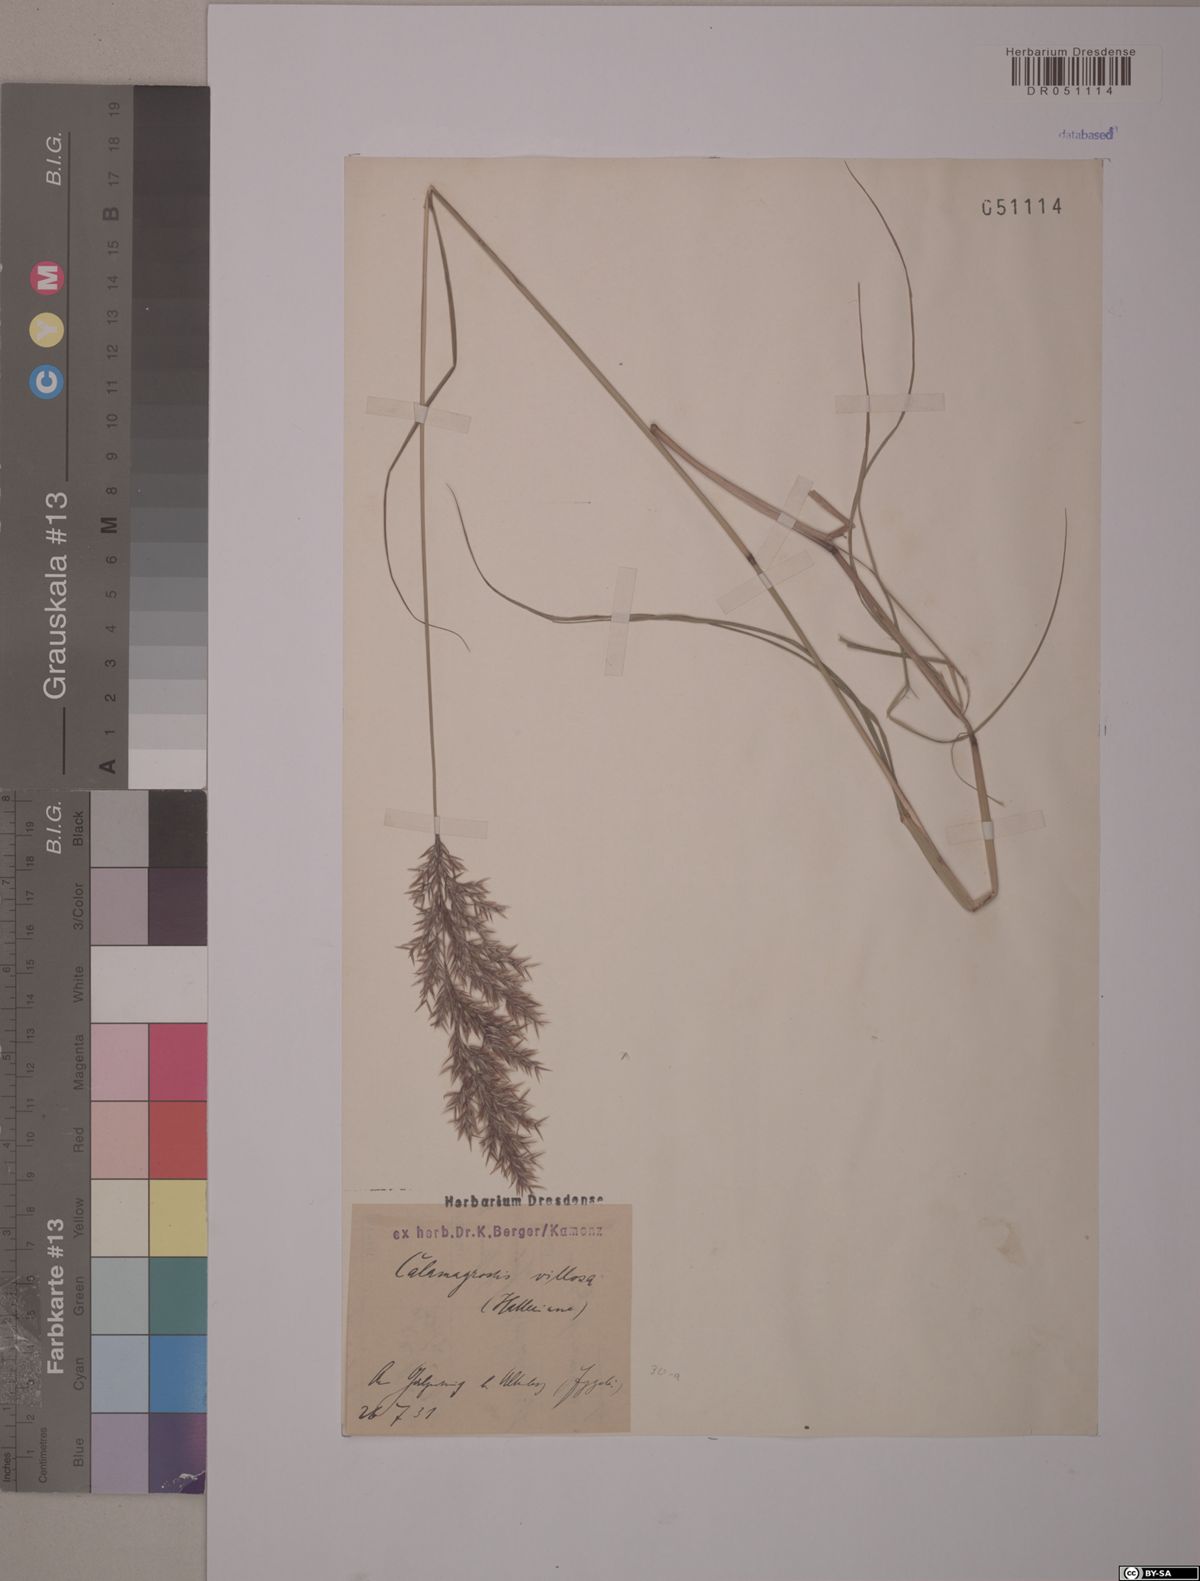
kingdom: Plantae
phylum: Tracheophyta
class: Liliopsida
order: Poales
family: Poaceae
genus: Calamagrostis
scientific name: Calamagrostis villosa
